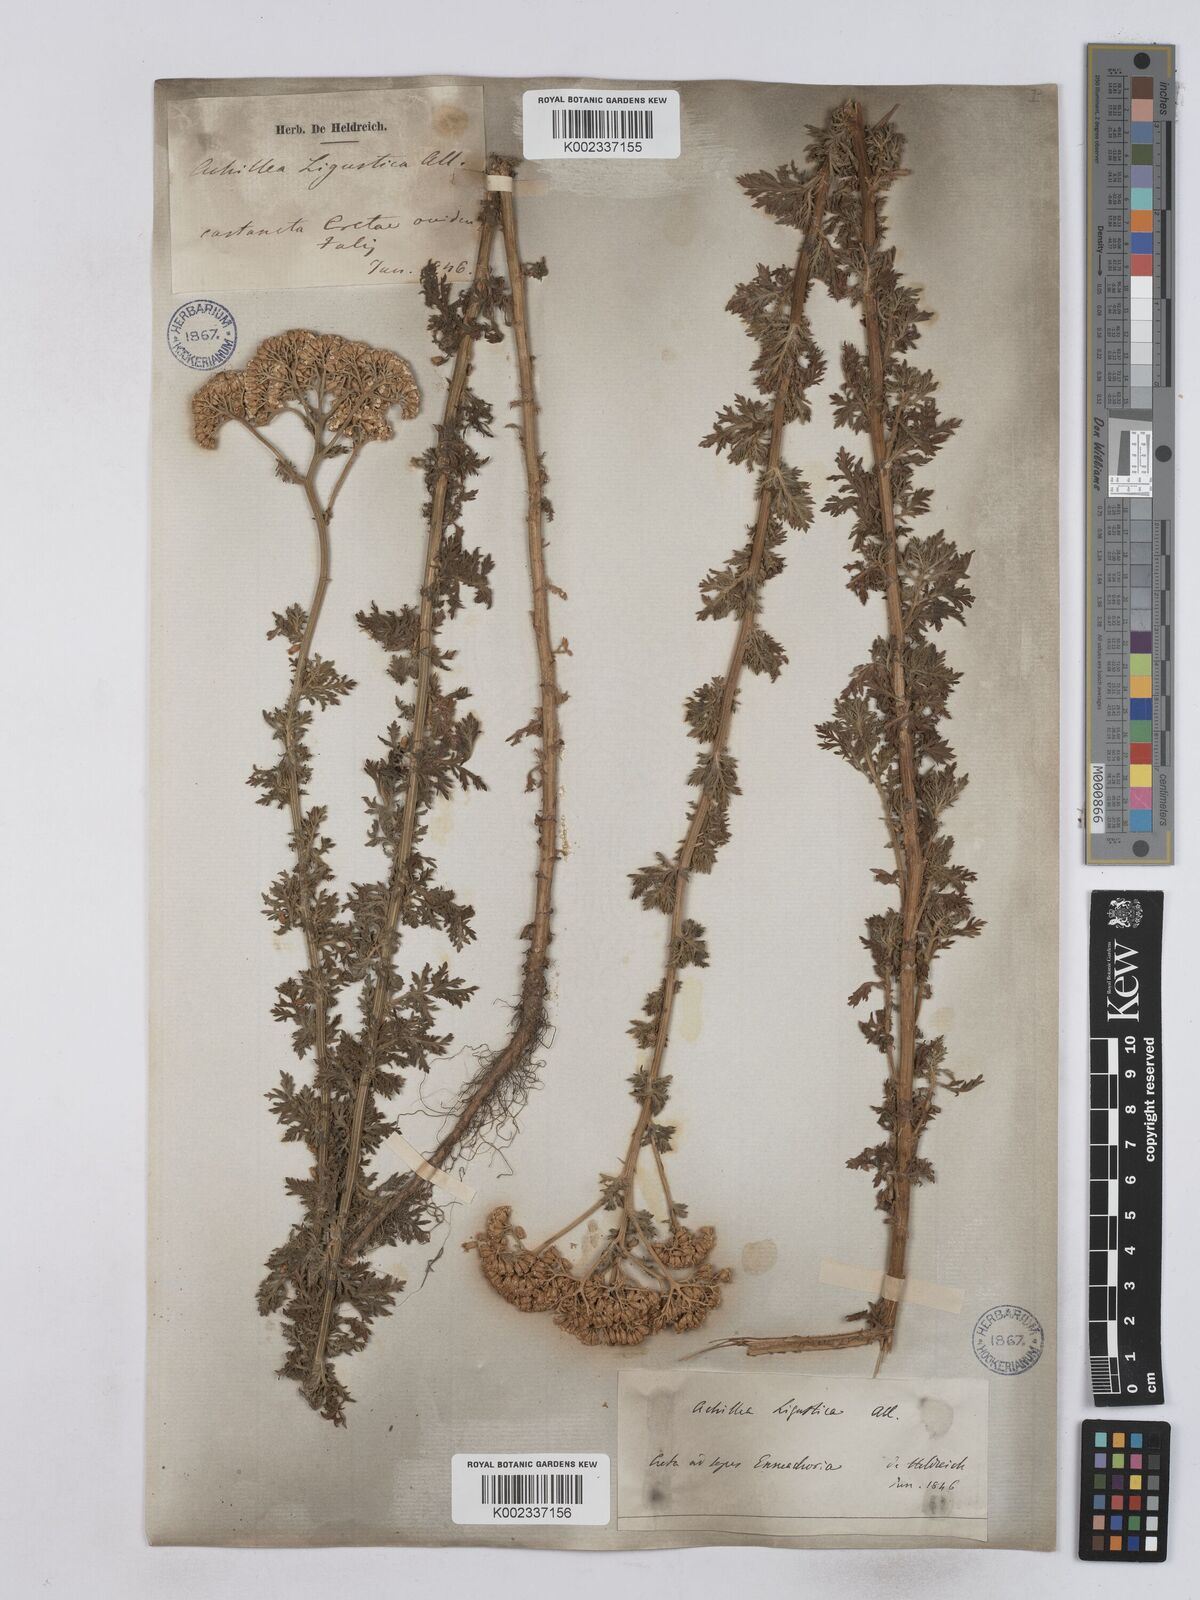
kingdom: Plantae
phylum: Tracheophyta
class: Magnoliopsida
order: Asterales
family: Asteraceae
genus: Achillea
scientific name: Achillea ligustica
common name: Southern yarrow
